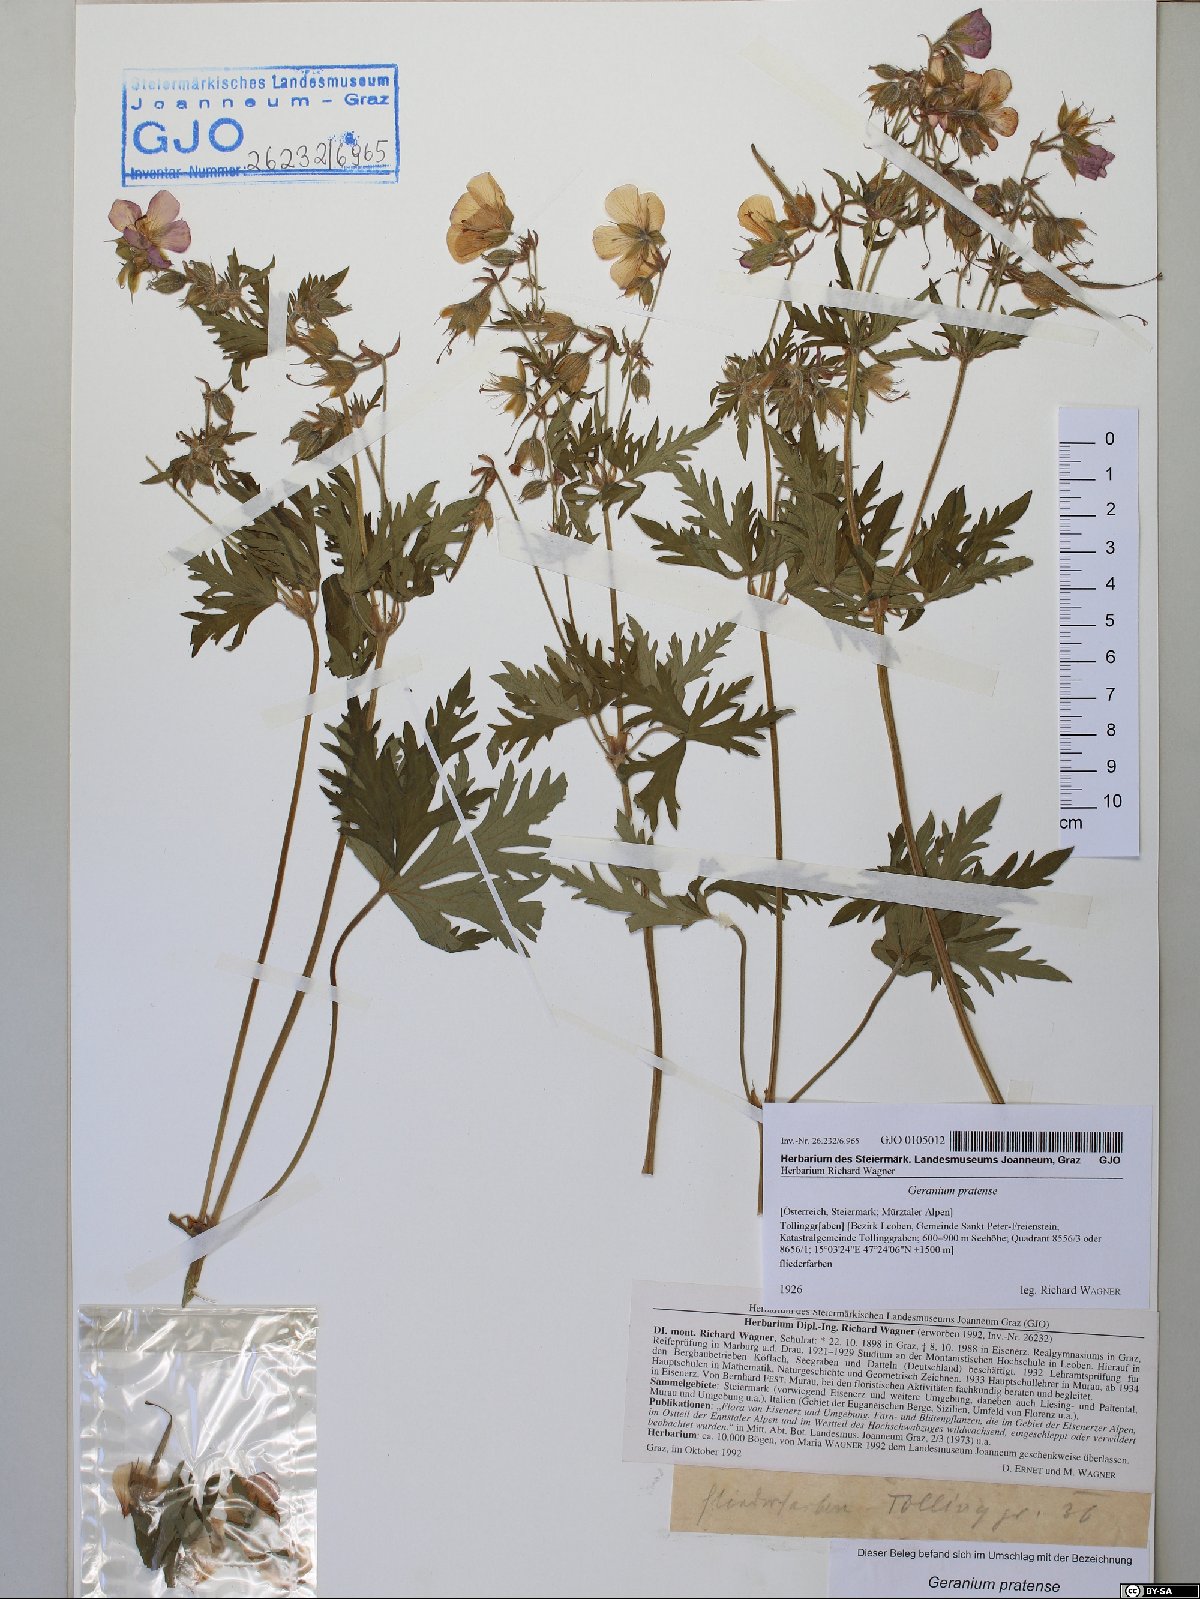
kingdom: Plantae
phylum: Tracheophyta
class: Magnoliopsida
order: Geraniales
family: Geraniaceae
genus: Geranium
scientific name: Geranium pratense
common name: Meadow crane's-bill
